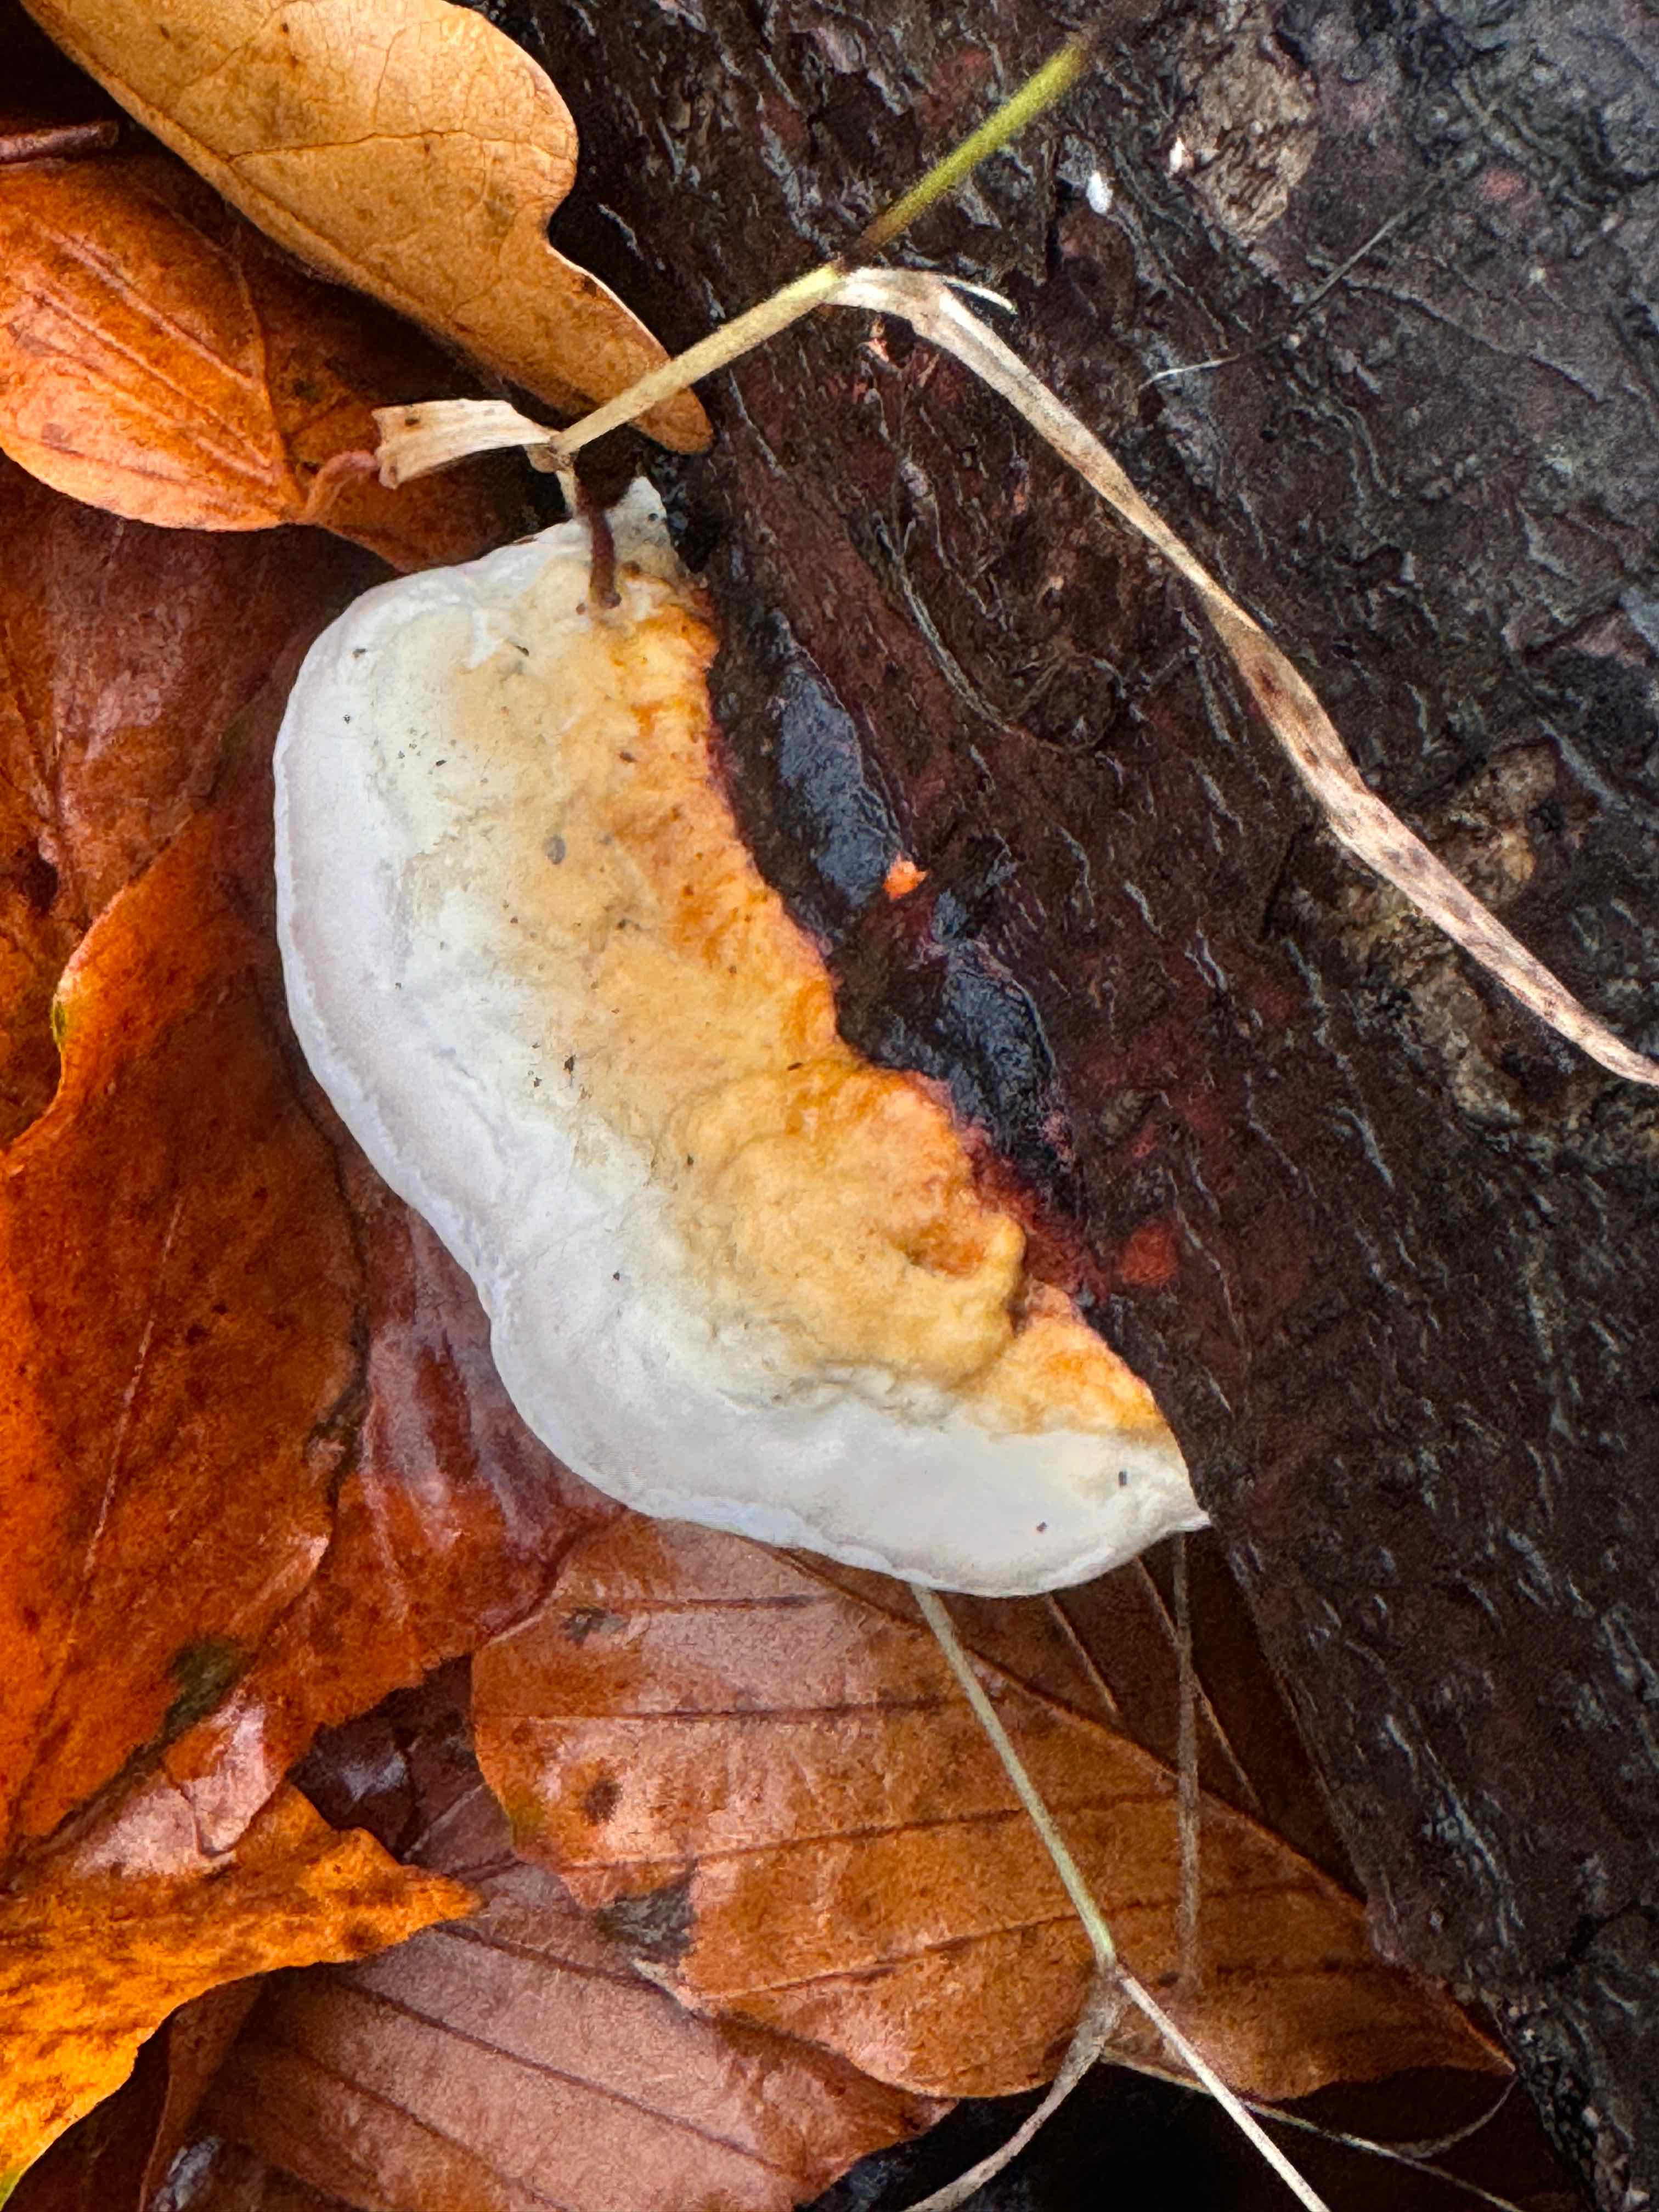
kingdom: Fungi
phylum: Basidiomycota
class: Agaricomycetes
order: Polyporales
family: Fomitopsidaceae
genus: Fomitopsis
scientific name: Fomitopsis pinicola
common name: randbæltet hovporesvamp
